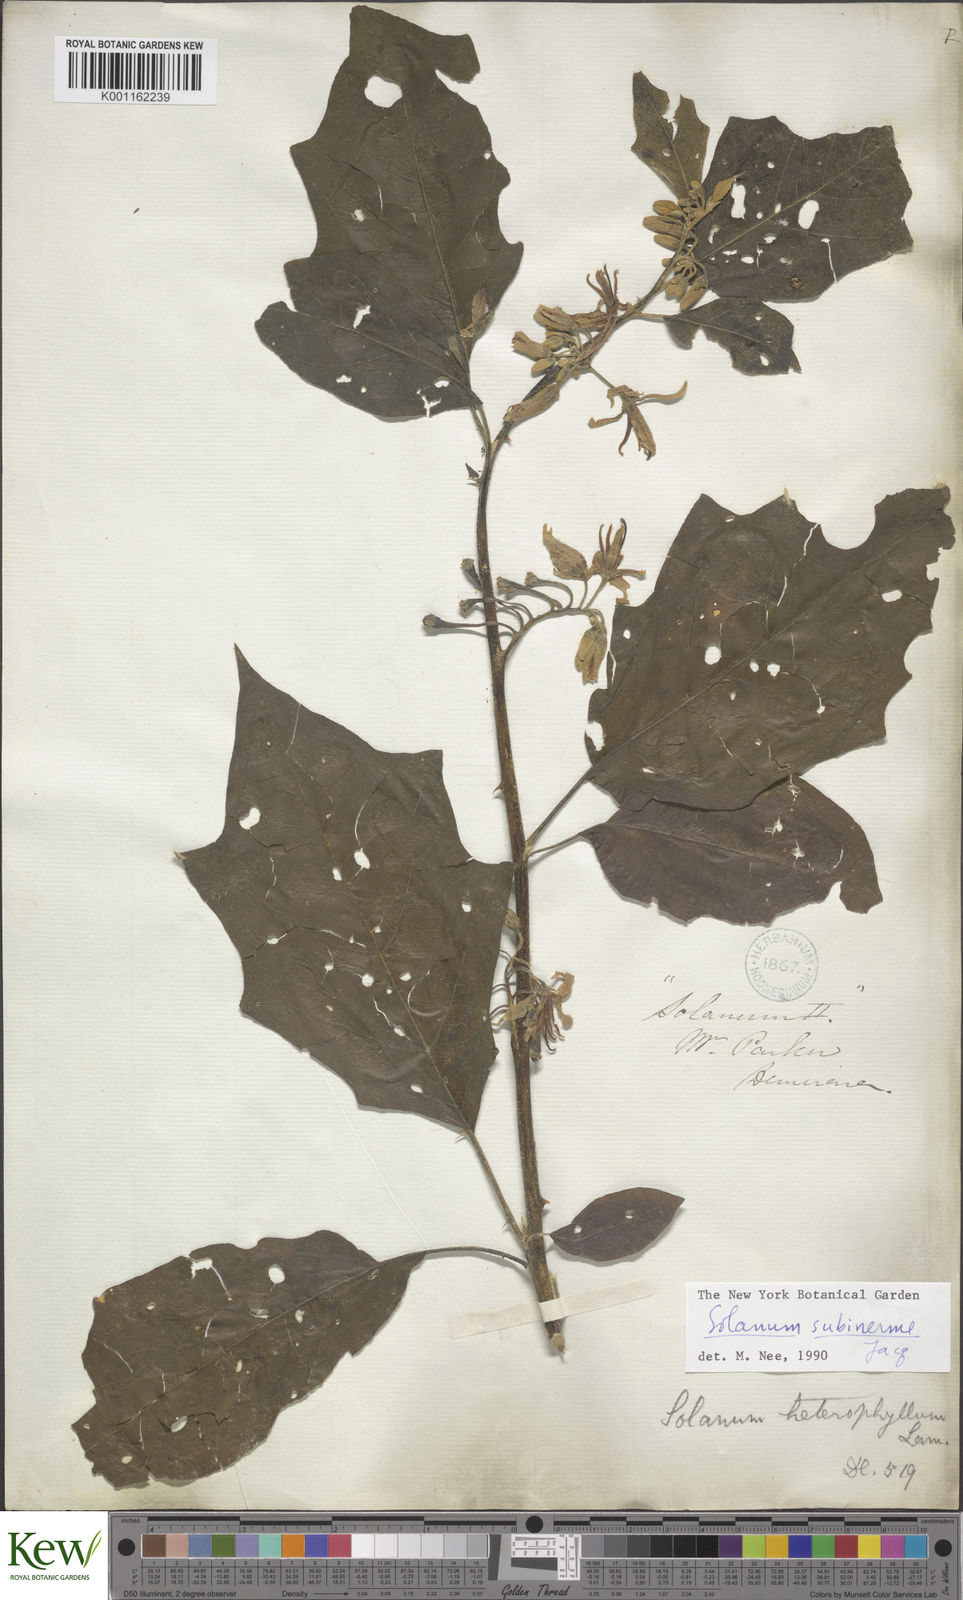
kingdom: Plantae
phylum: Tracheophyta
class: Magnoliopsida
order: Solanales
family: Solanaceae
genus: Solanum
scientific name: Solanum subinerme
